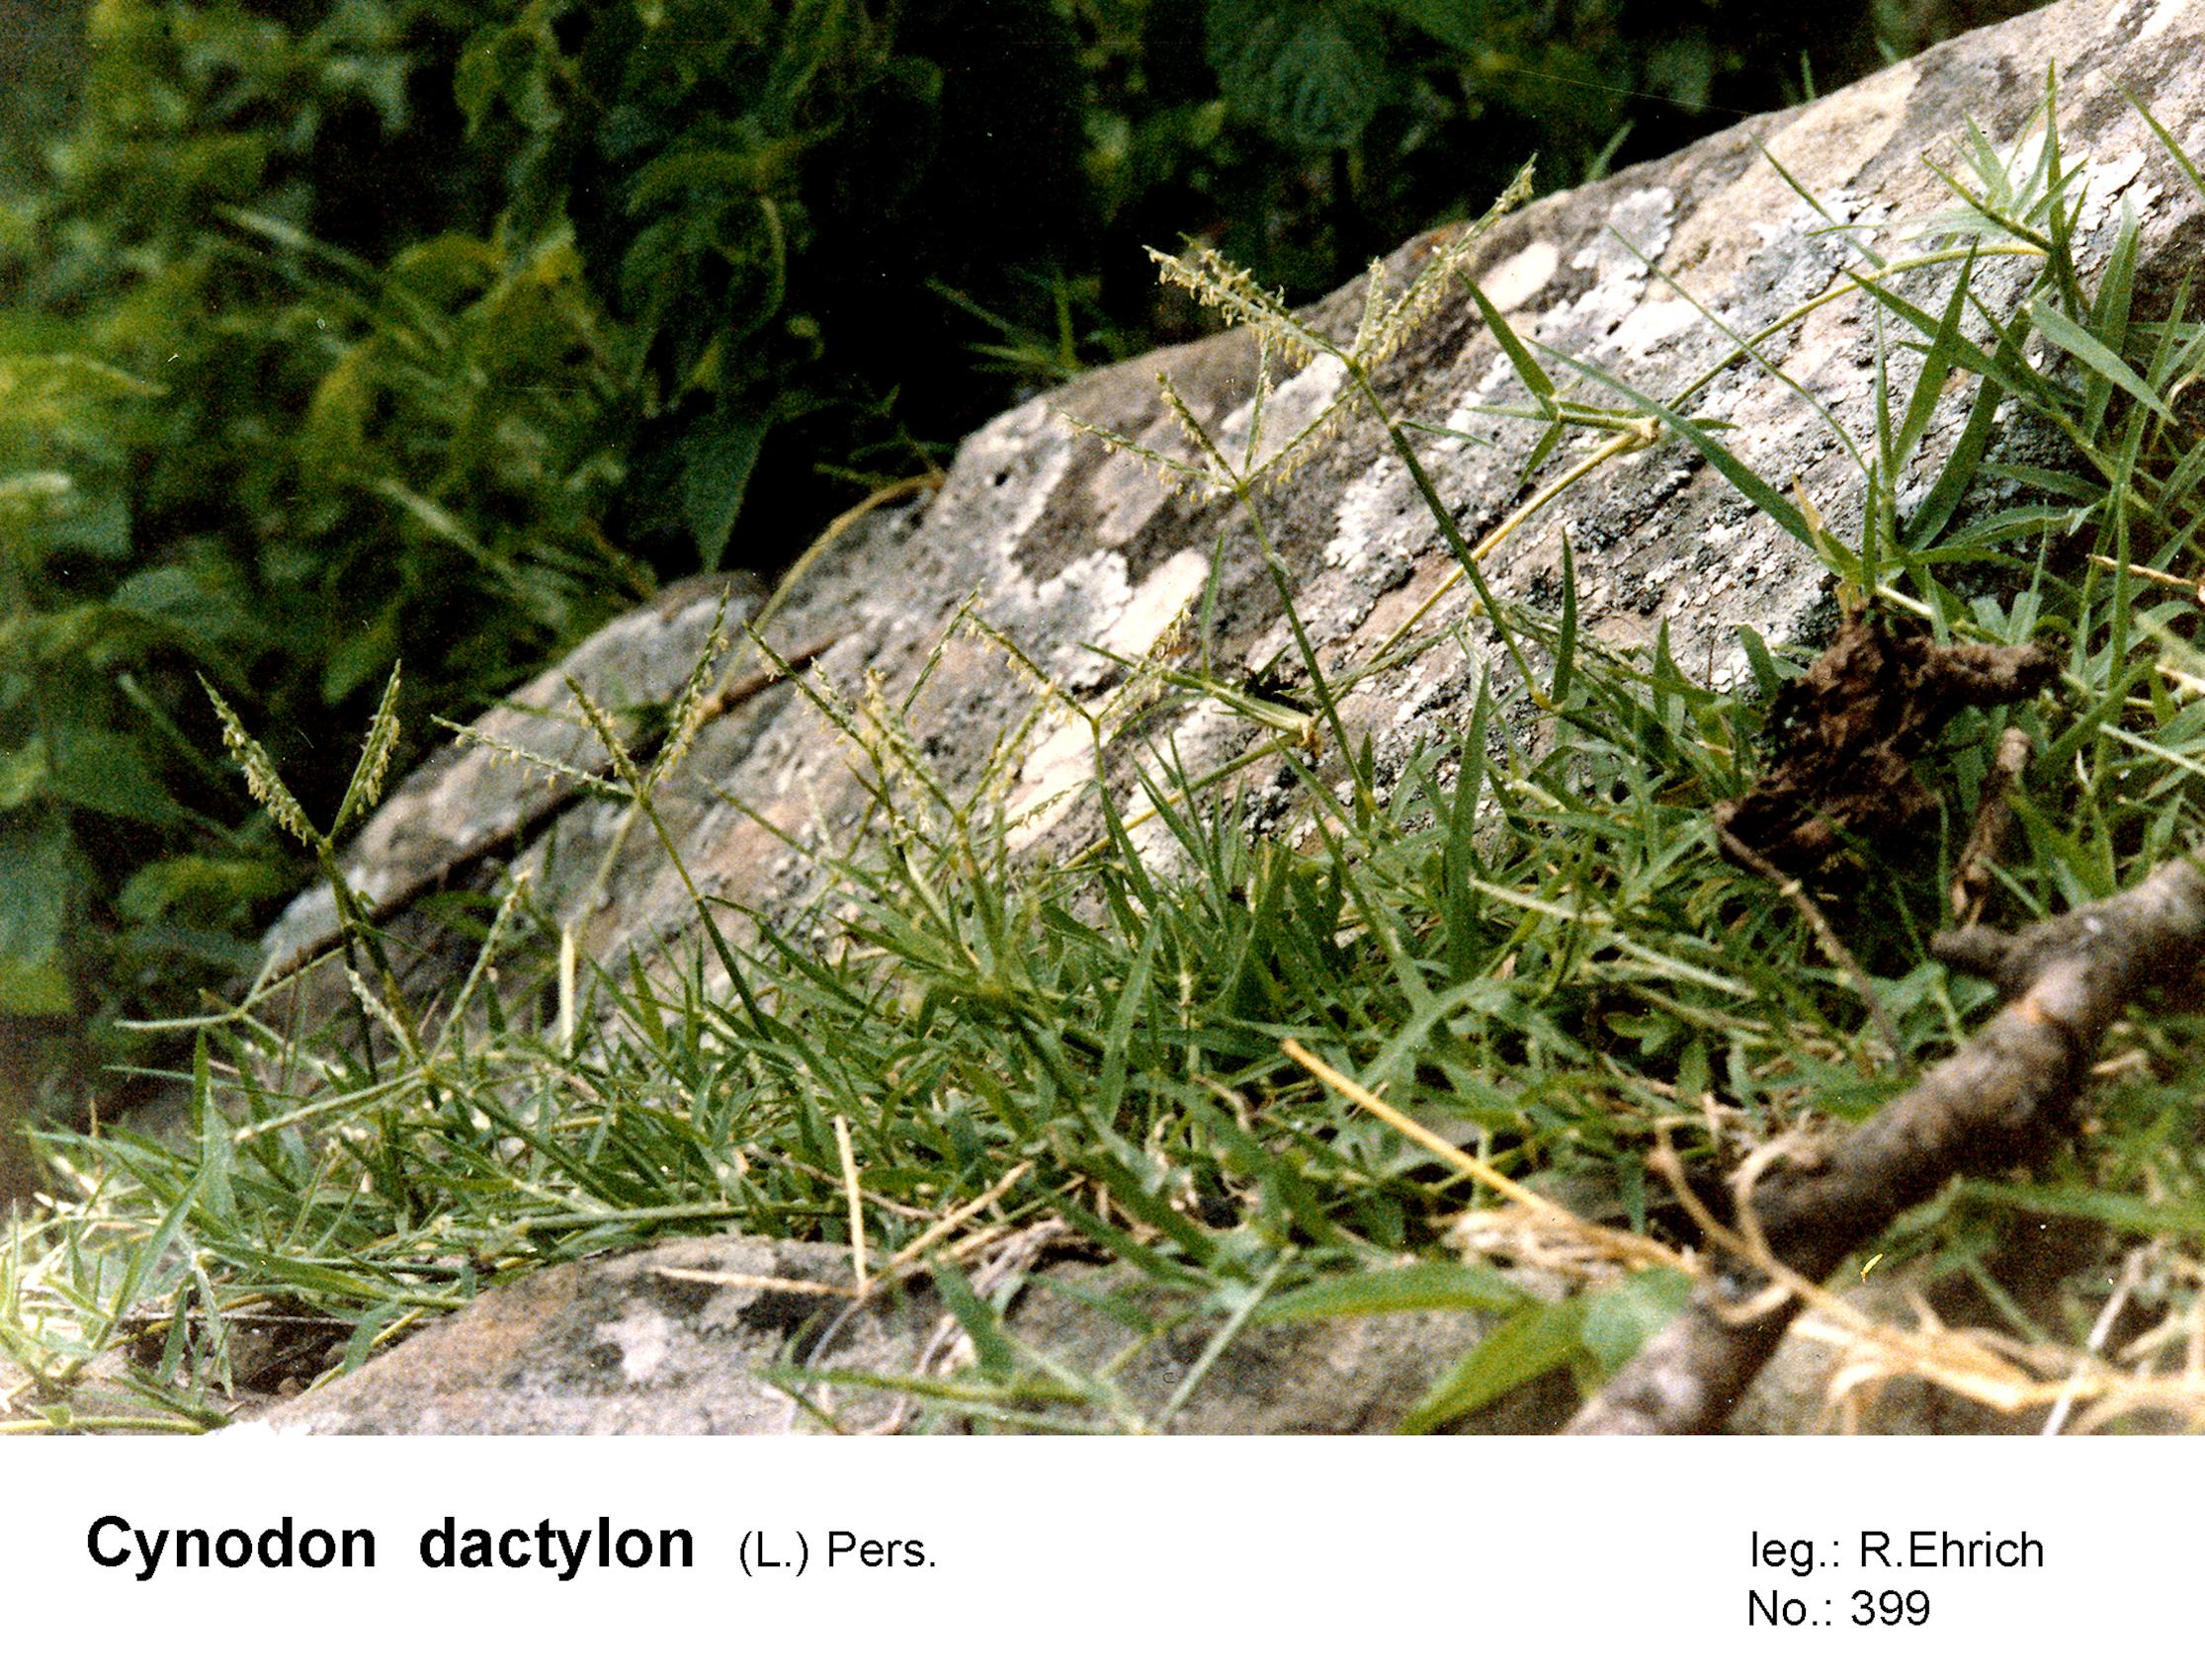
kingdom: Plantae
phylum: Tracheophyta
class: Liliopsida
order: Poales
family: Poaceae
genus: Cynodon
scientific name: Cynodon dactylon
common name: Bermuda grass
